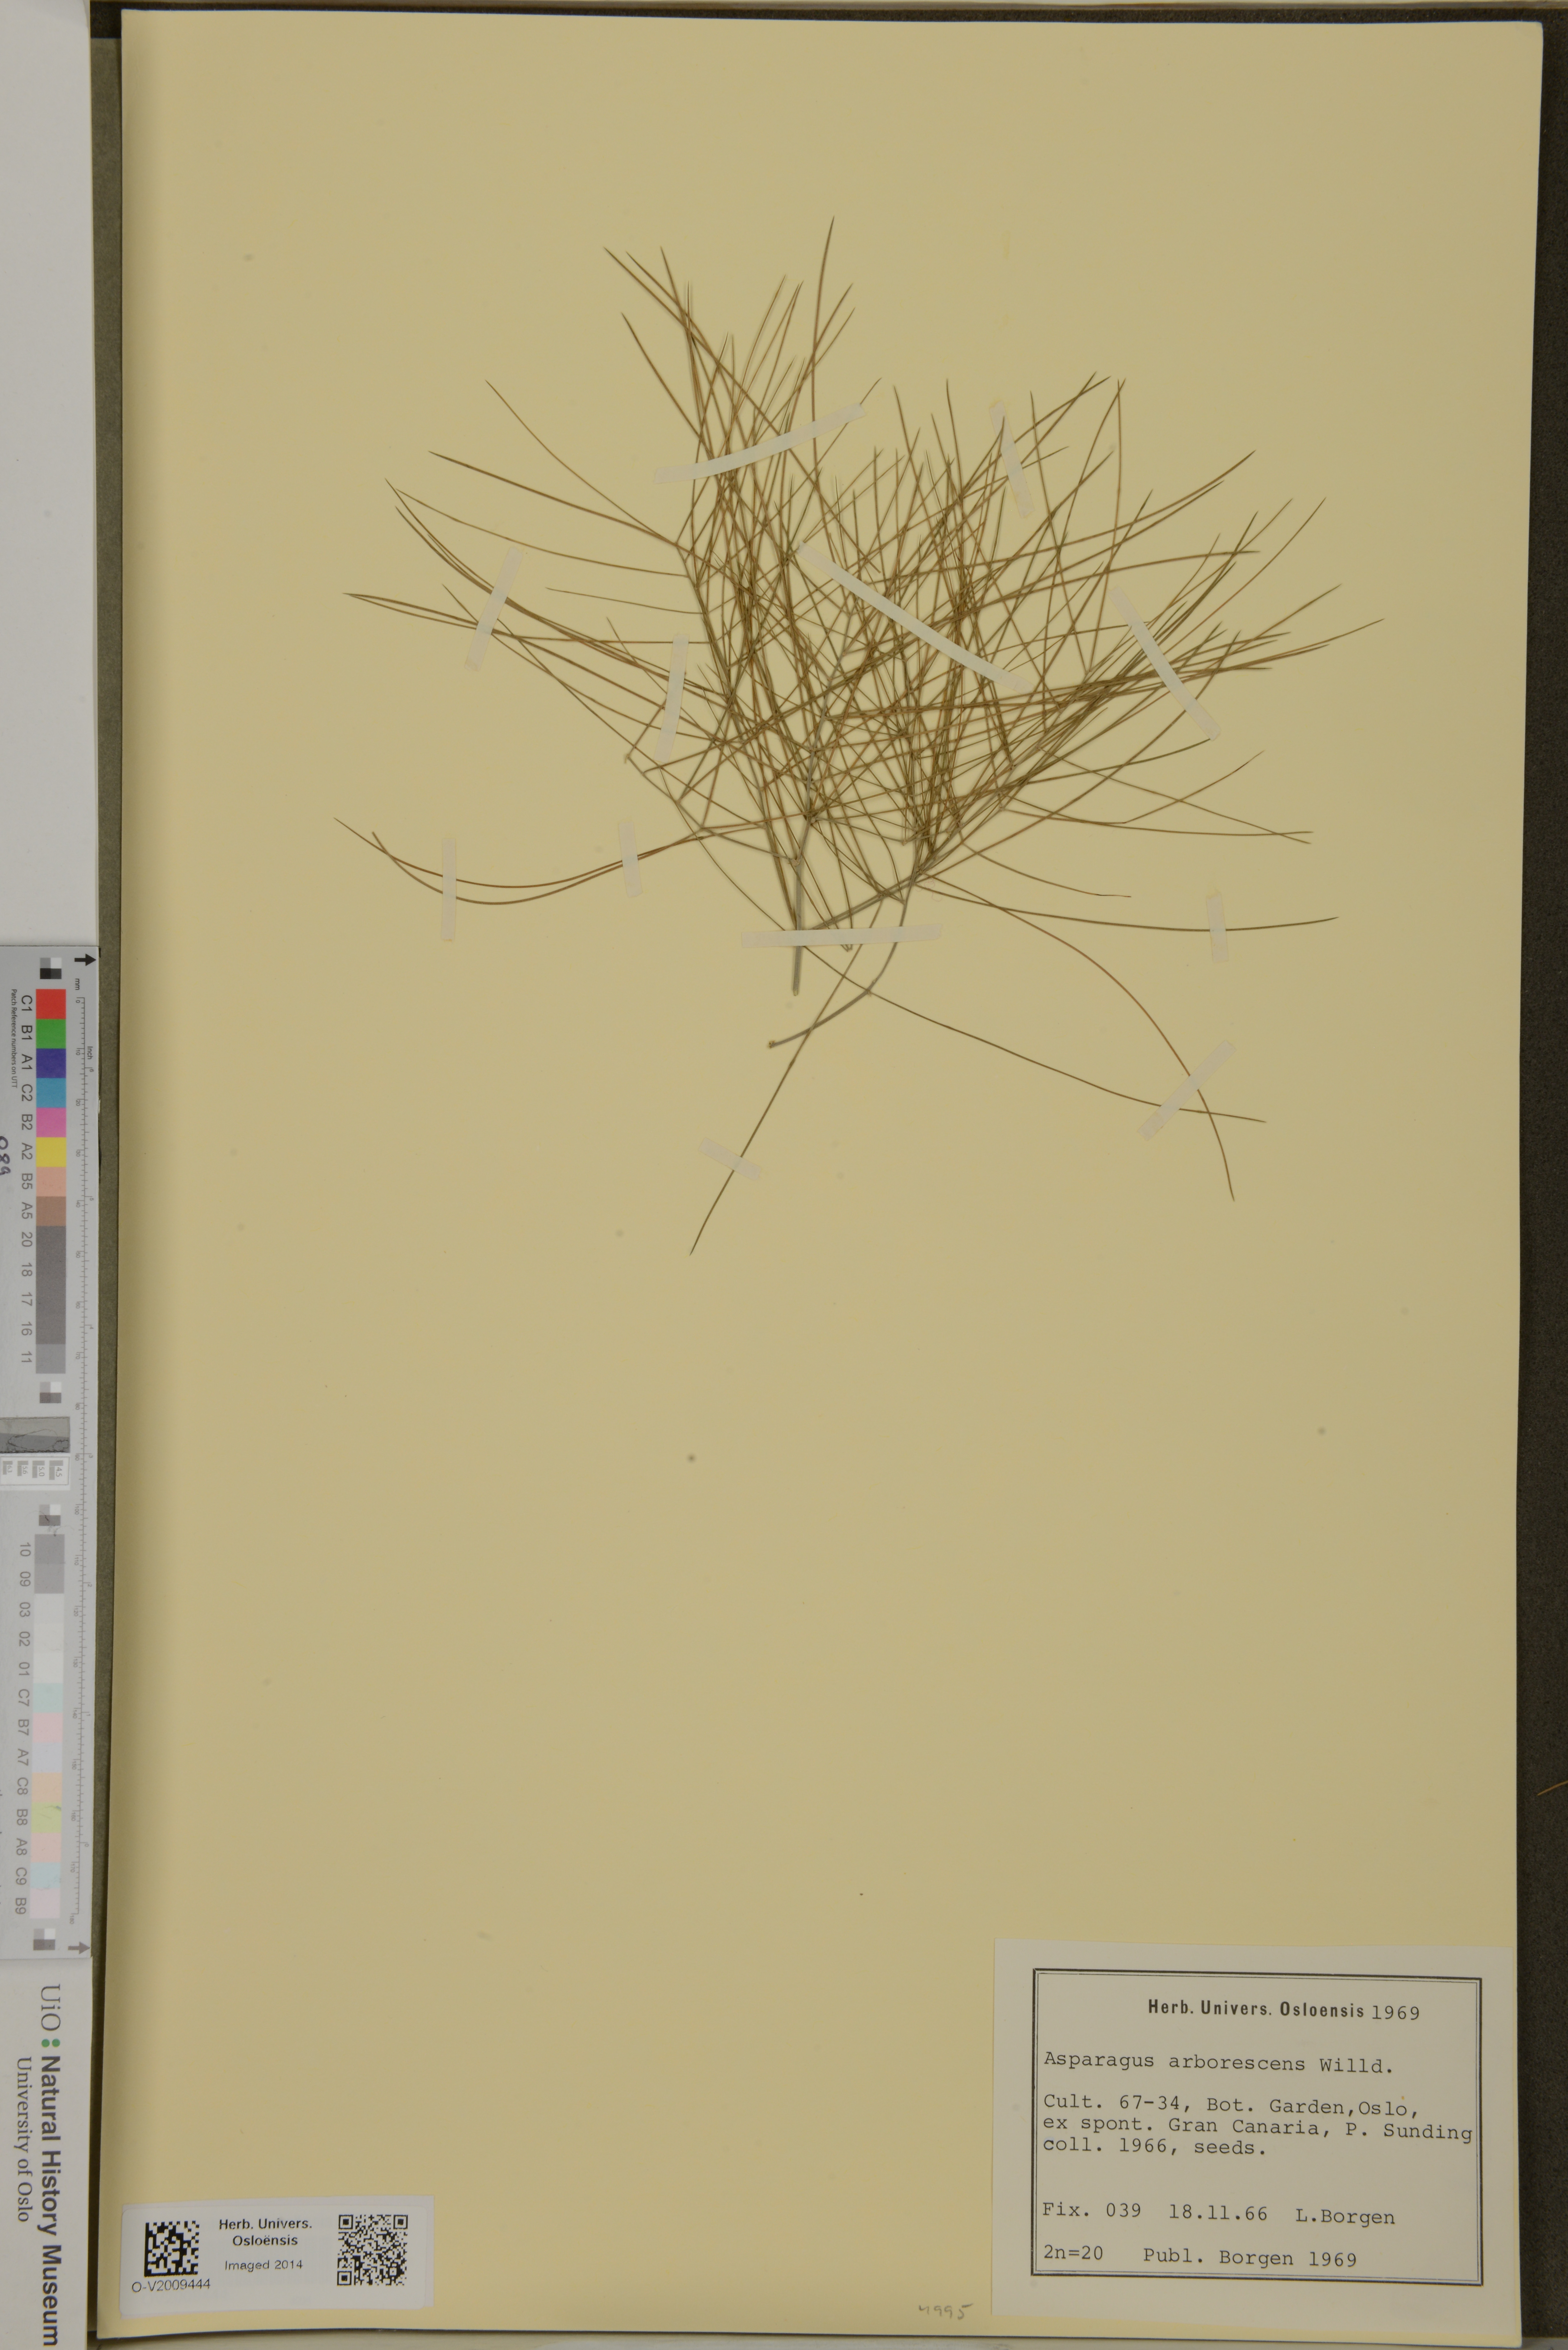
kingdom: Plantae
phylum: Tracheophyta
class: Liliopsida
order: Asparagales
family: Asparagaceae
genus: Asparagus
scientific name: Asparagus arborescens
